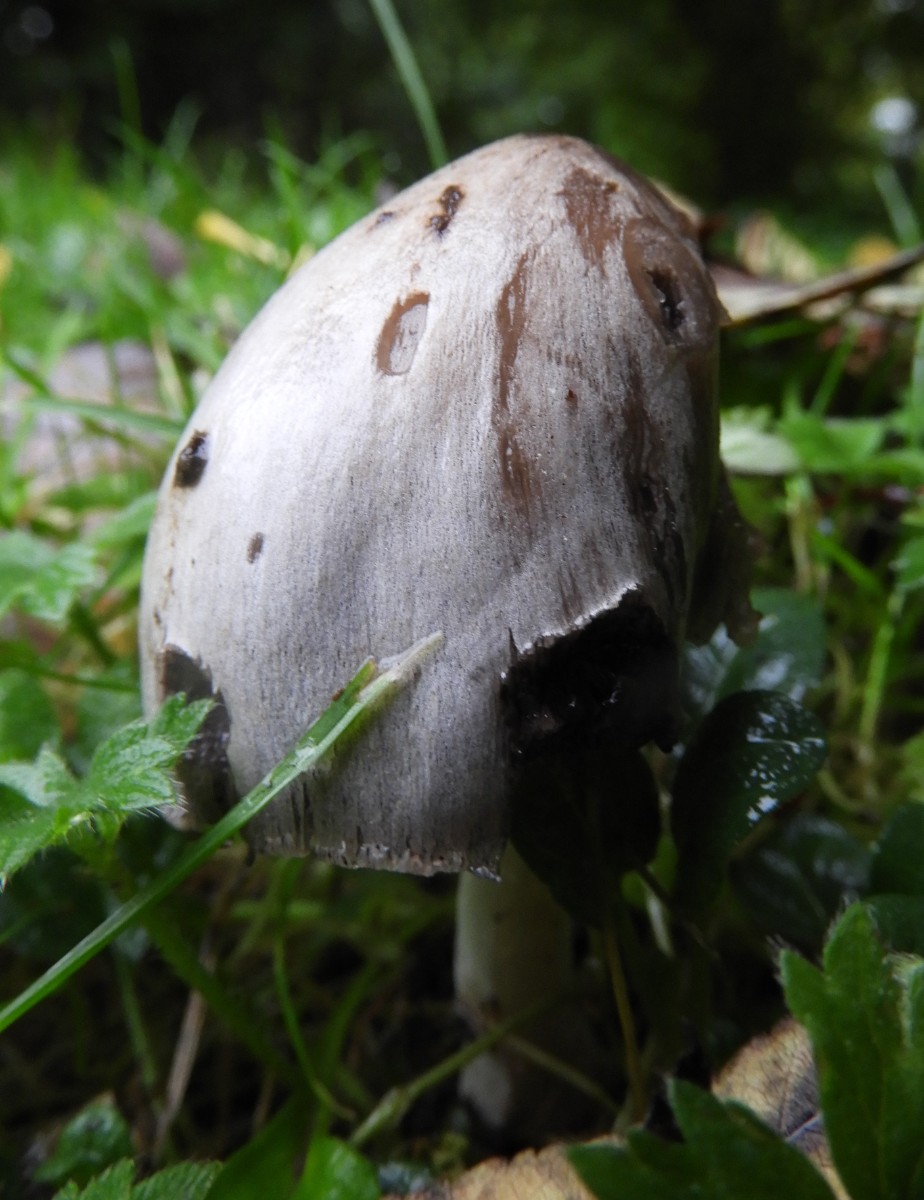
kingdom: Fungi
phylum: Basidiomycota
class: Agaricomycetes
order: Agaricales
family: Psathyrellaceae
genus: Coprinopsis
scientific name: Coprinopsis atramentaria
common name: almindelig blækhat
